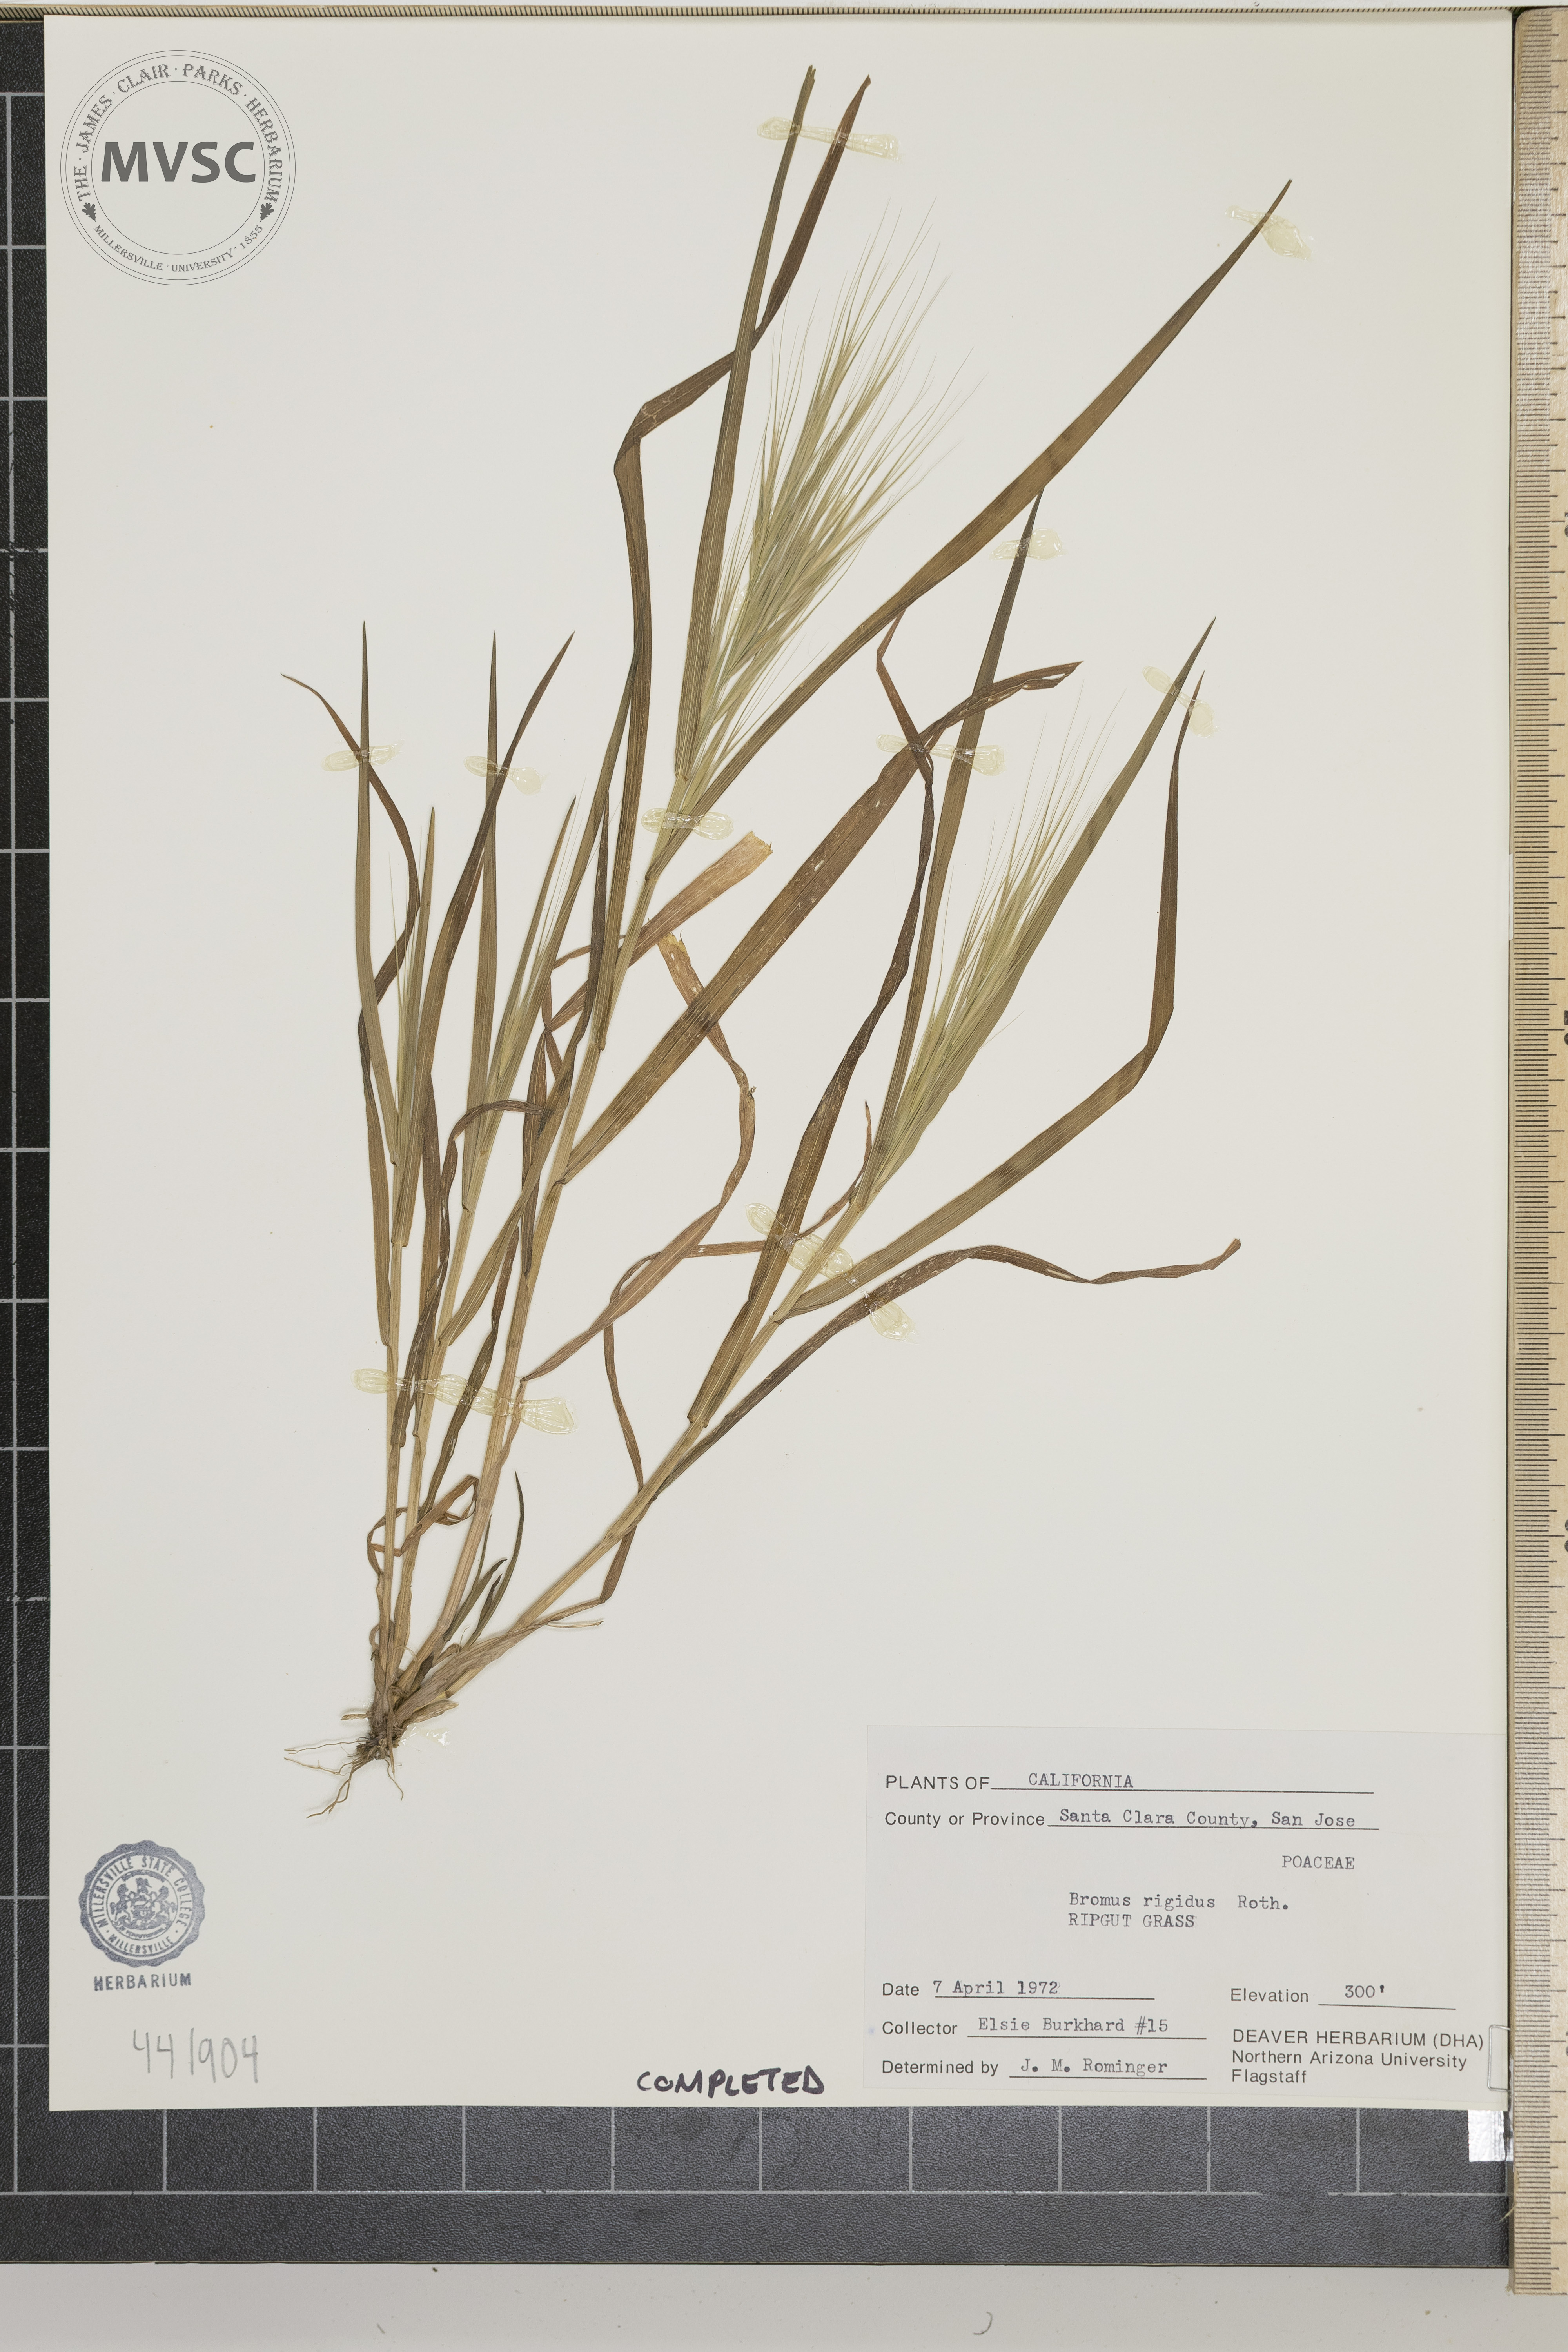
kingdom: Plantae
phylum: Tracheophyta
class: Liliopsida
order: Poales
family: Poaceae
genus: Bromus
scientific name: Bromus rigidus
